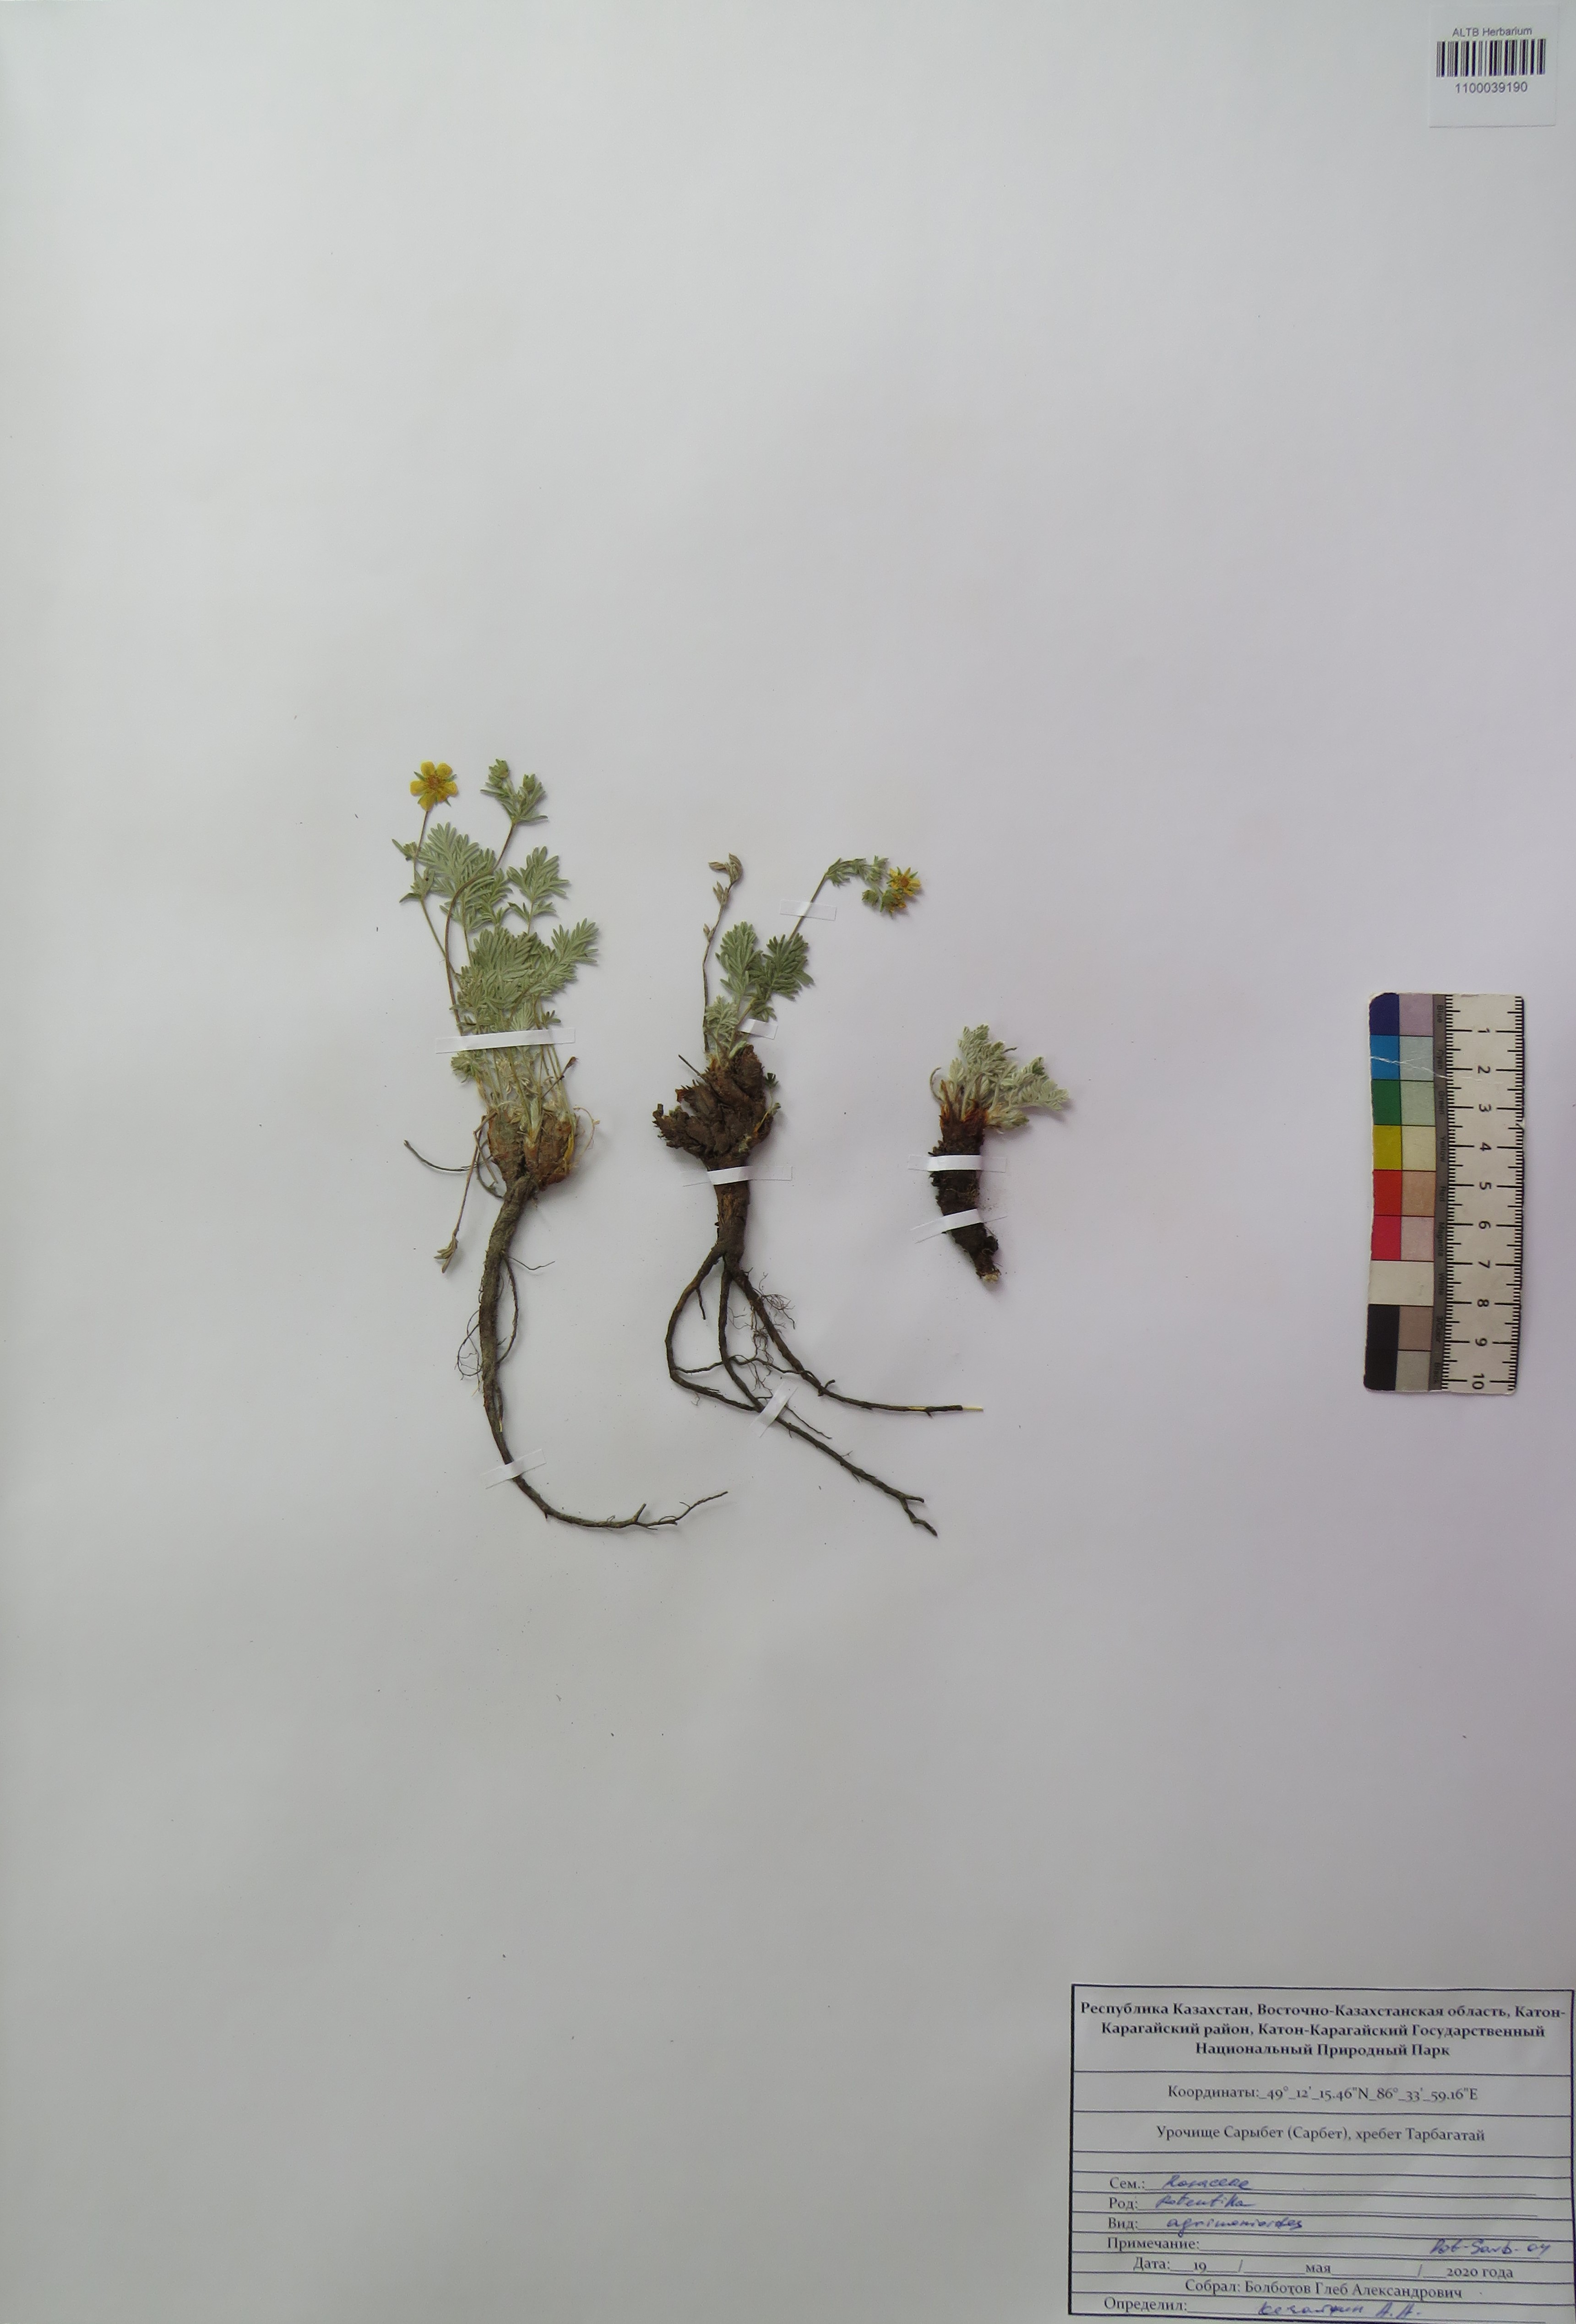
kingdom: Plantae
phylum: Tracheophyta
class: Magnoliopsida
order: Rosales
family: Rosaceae
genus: Potentilla
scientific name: Potentilla agrimonioides
